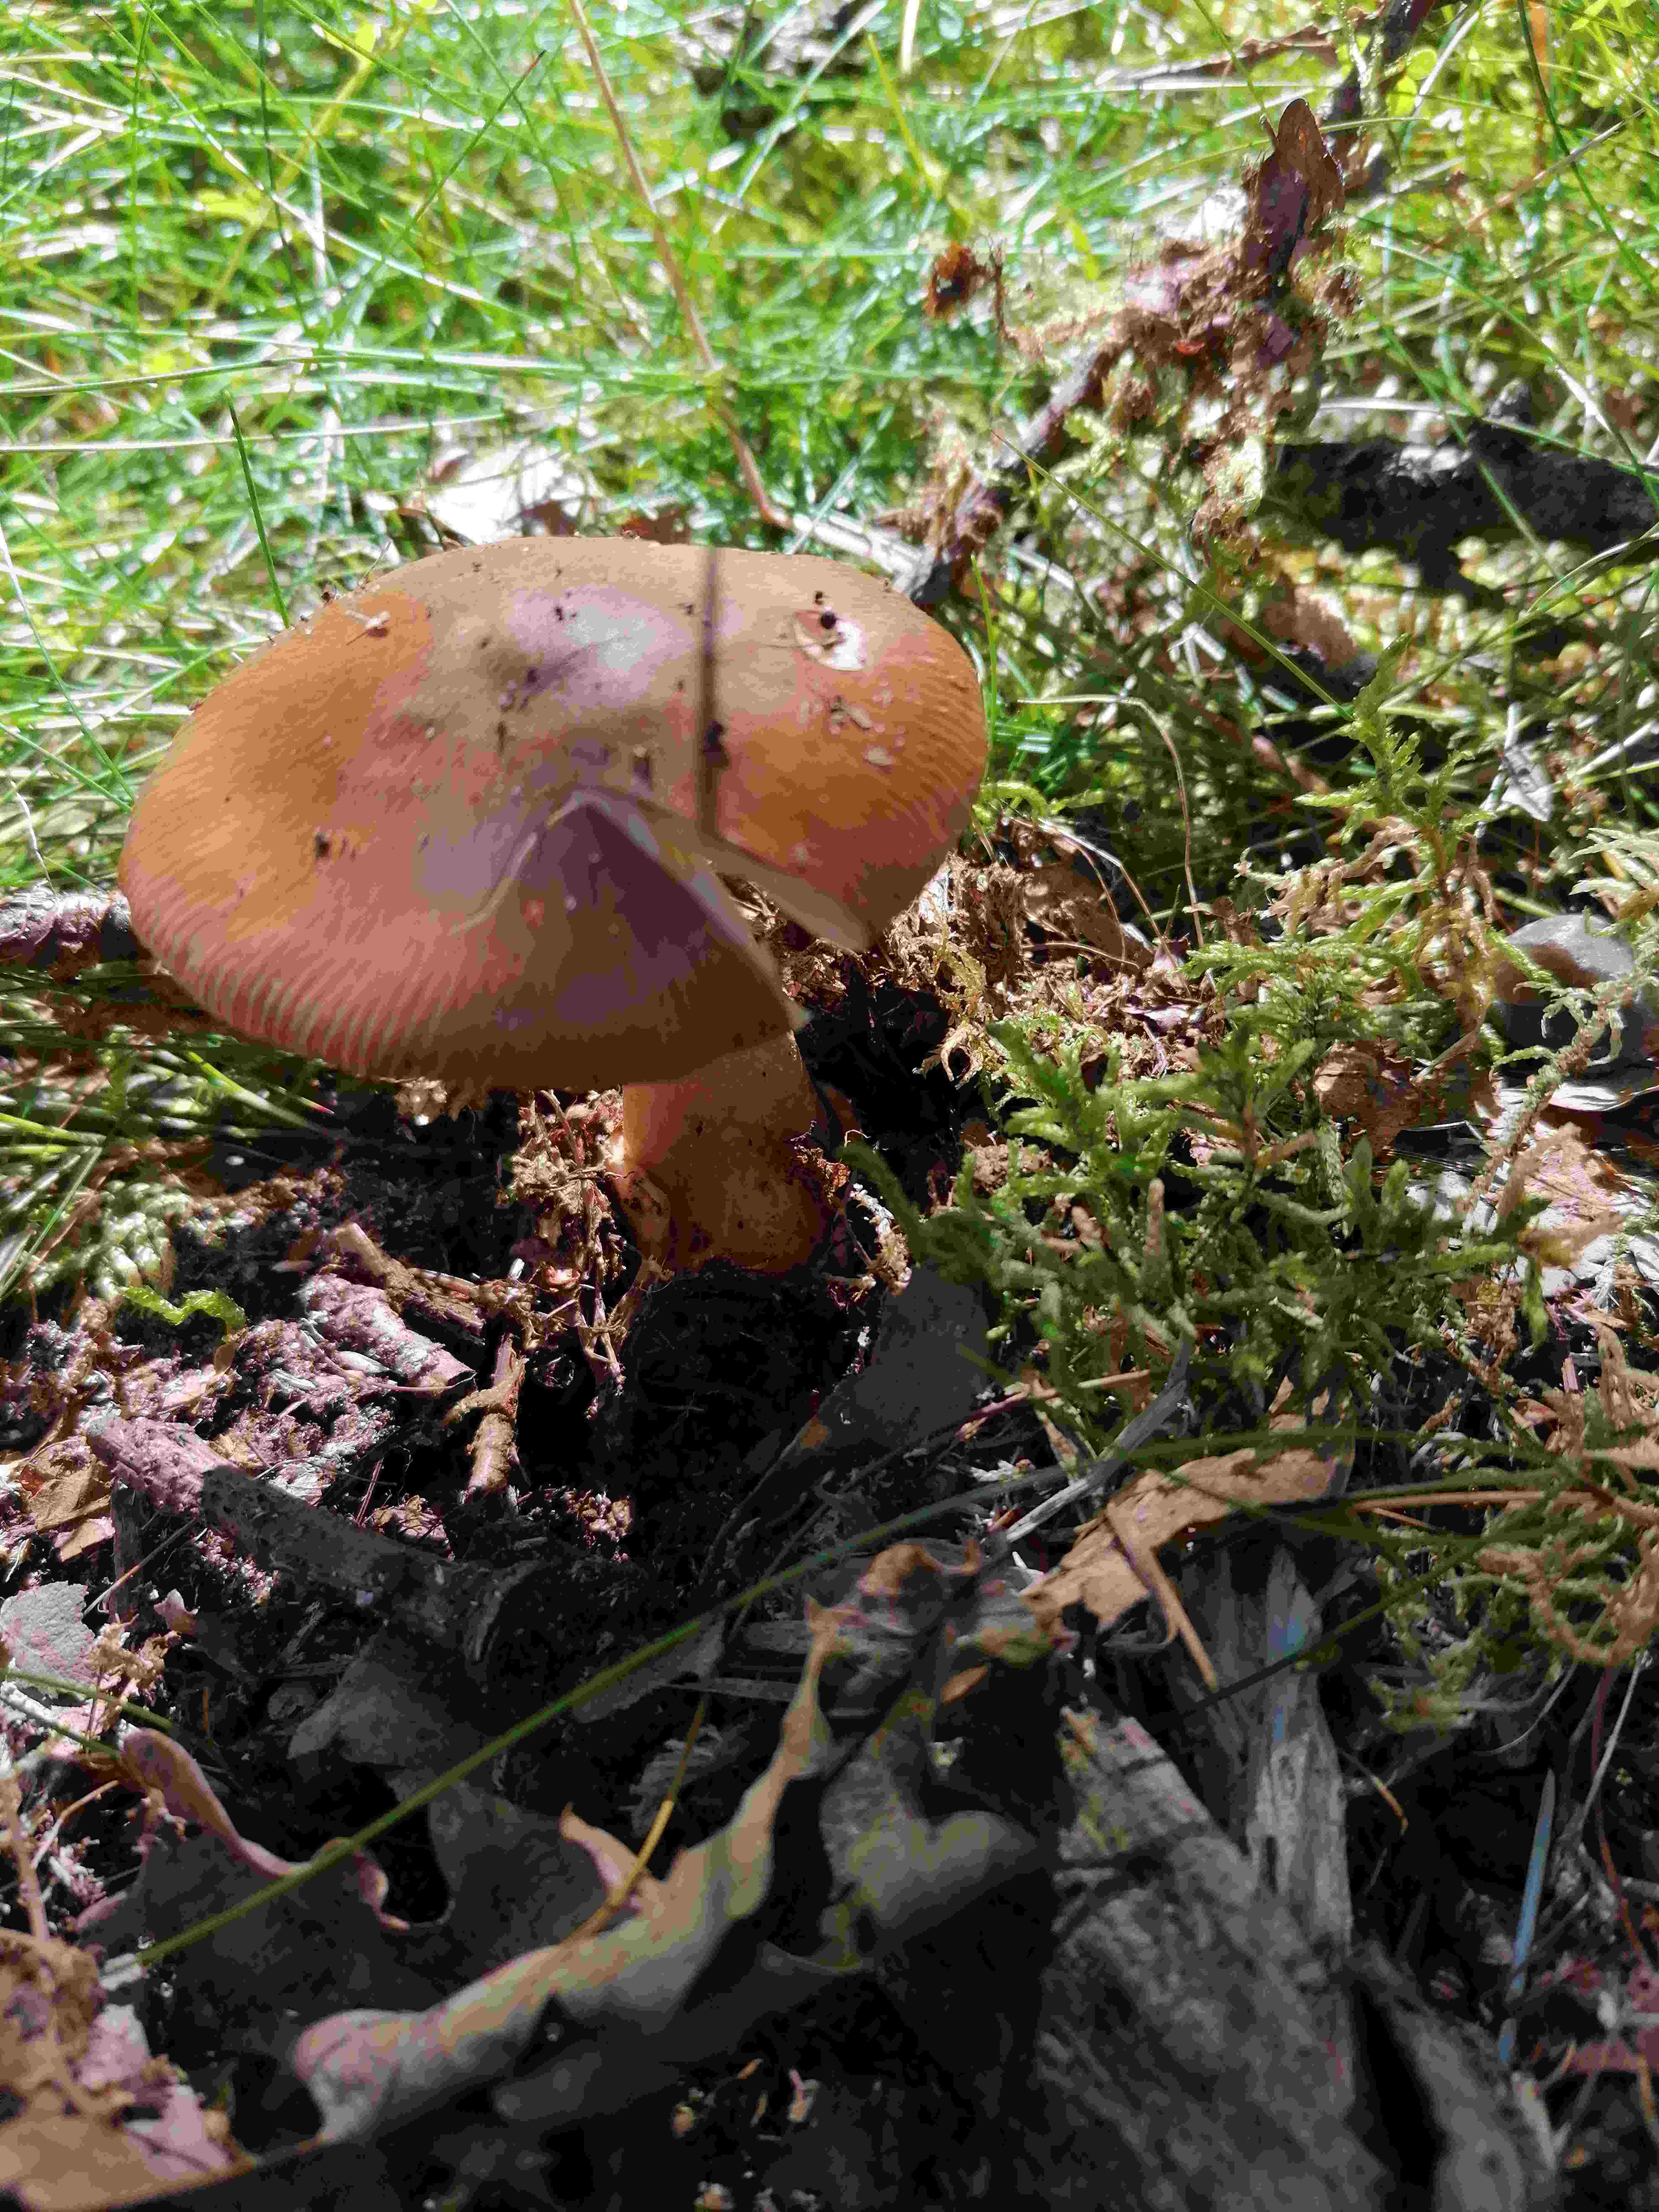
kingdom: Fungi
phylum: Basidiomycota
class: Agaricomycetes
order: Agaricales
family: Amanitaceae
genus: Amanita
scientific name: Amanita fulva
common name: brun kam-fluesvamp
